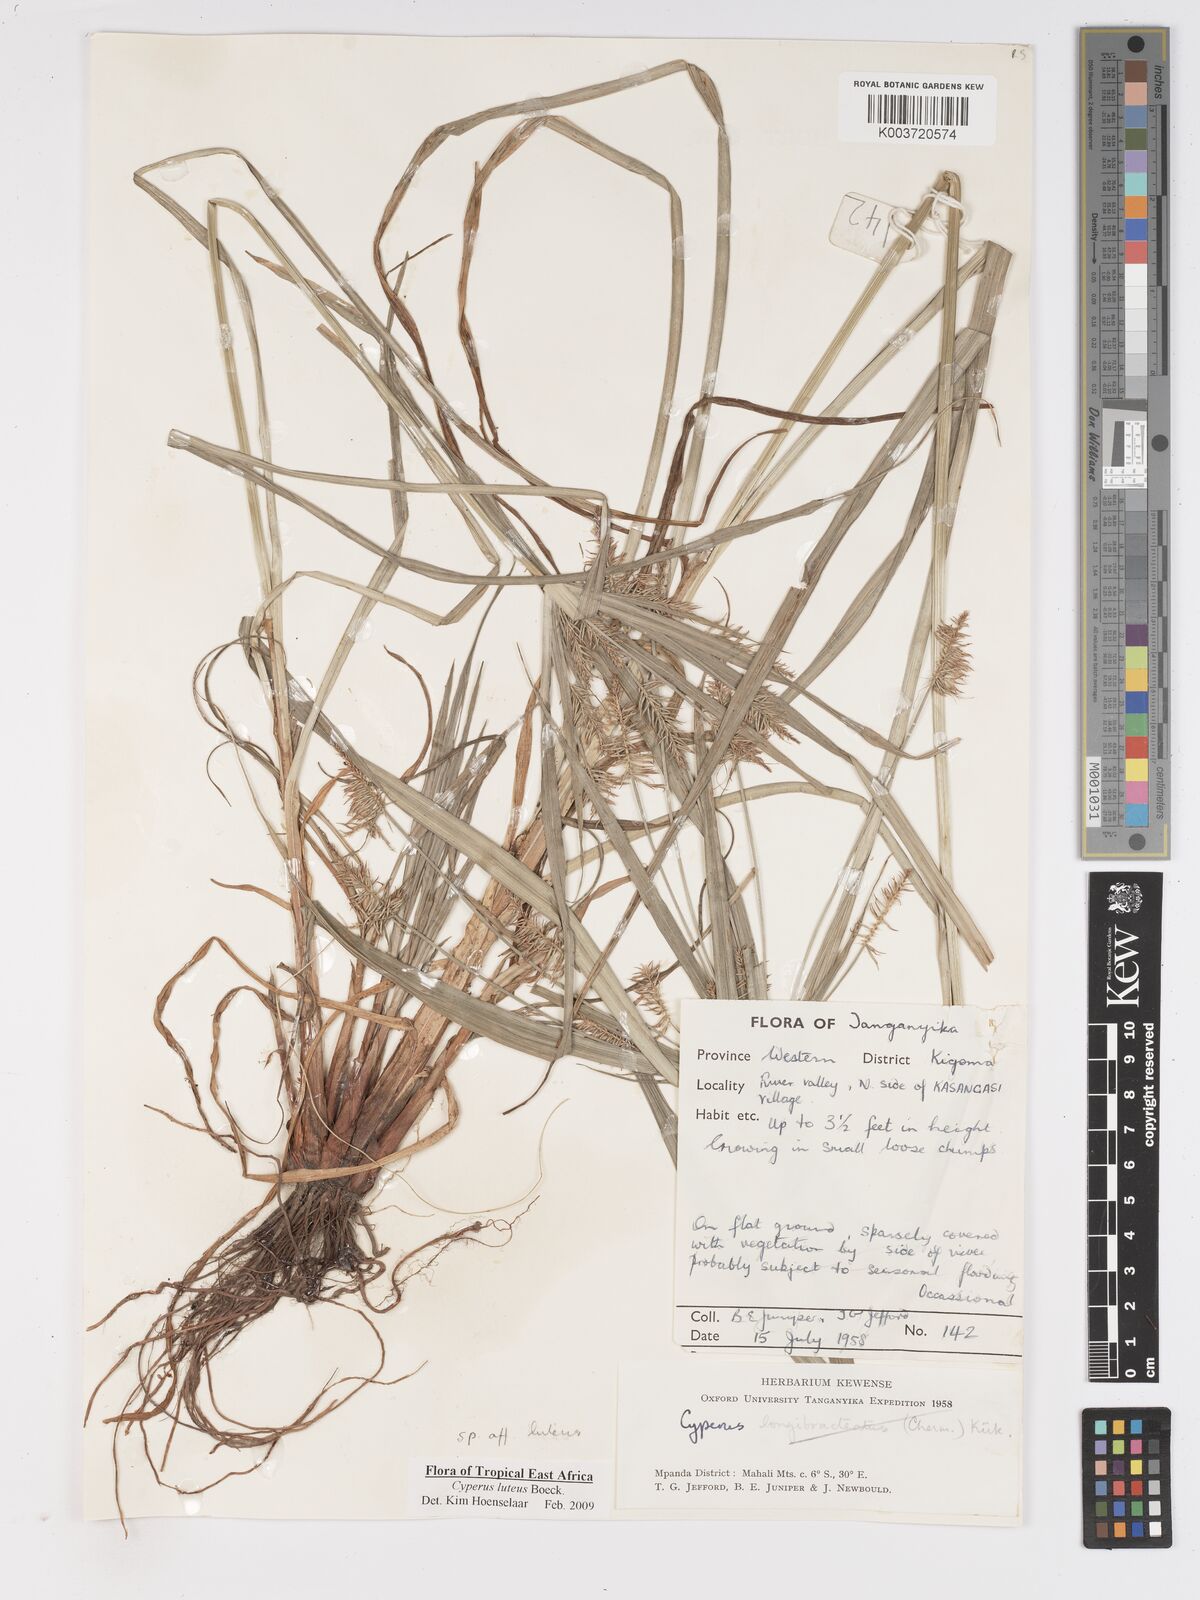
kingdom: Plantae
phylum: Tracheophyta
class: Liliopsida
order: Poales
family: Cyperaceae
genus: Cyperus
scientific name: Cyperus luteus
